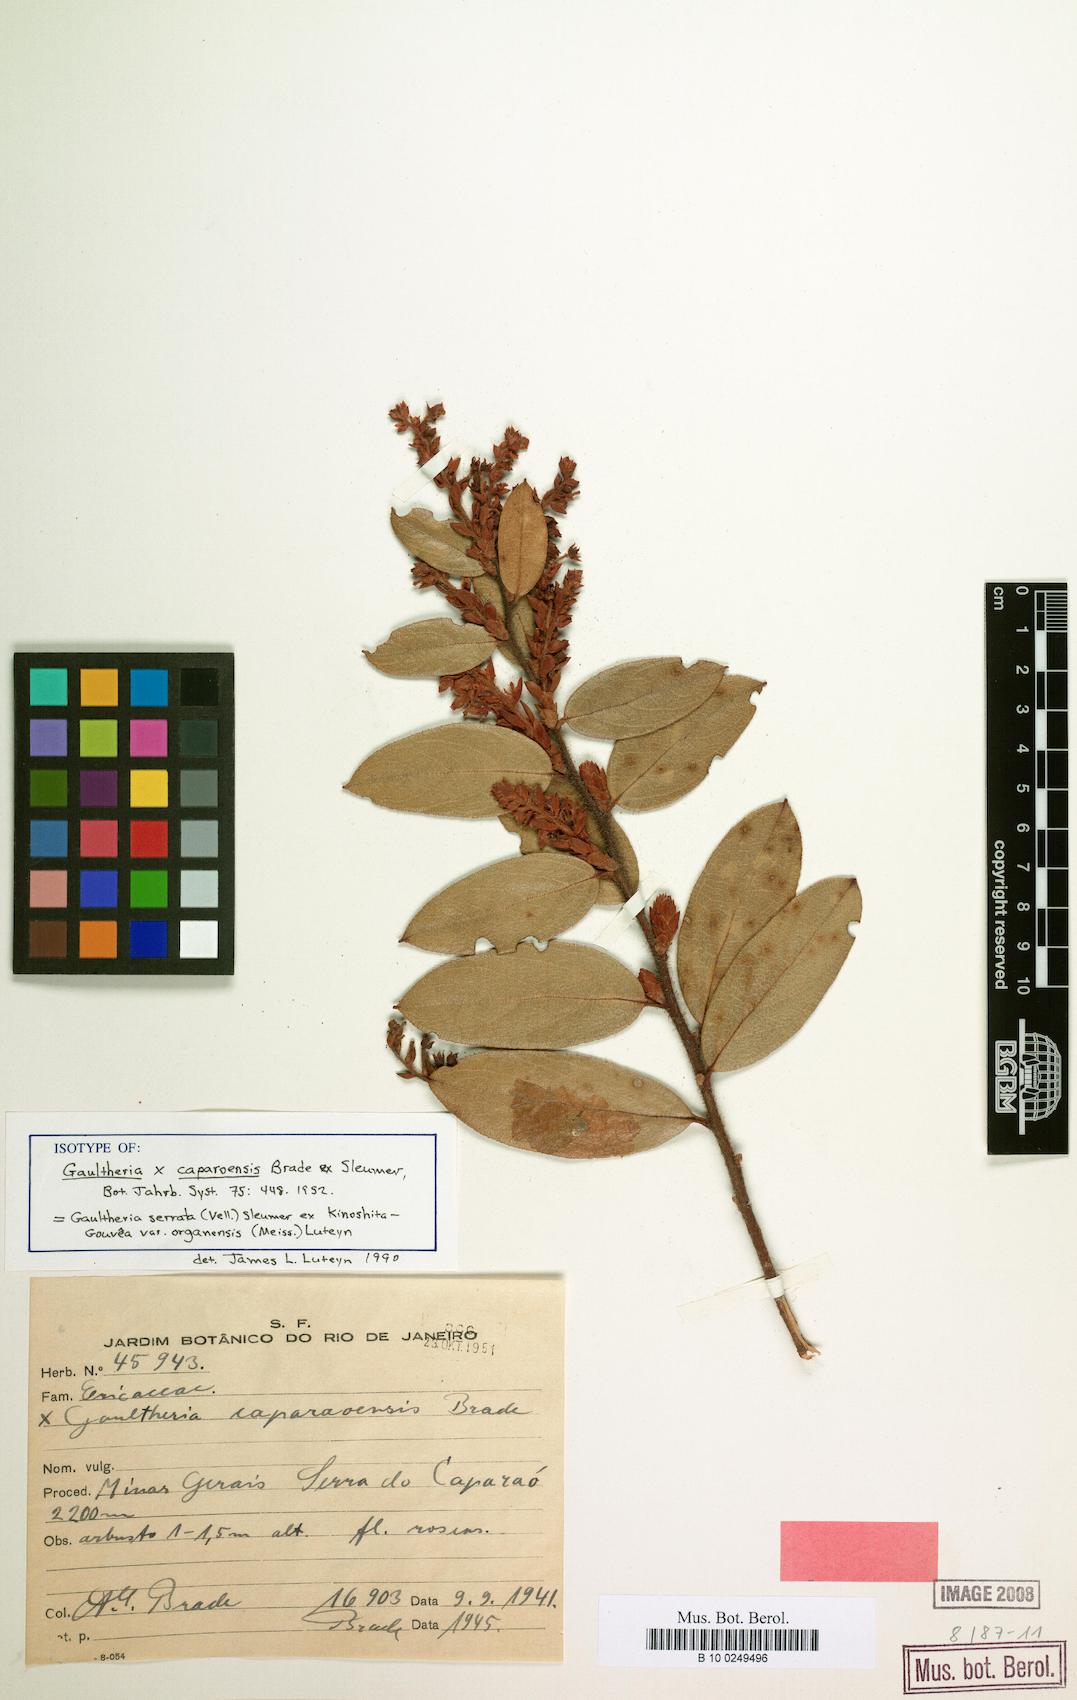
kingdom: Plantae
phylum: Tracheophyta
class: Magnoliopsida
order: Ericales
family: Ericaceae
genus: Gaultheria
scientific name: Gaultheria serrata
